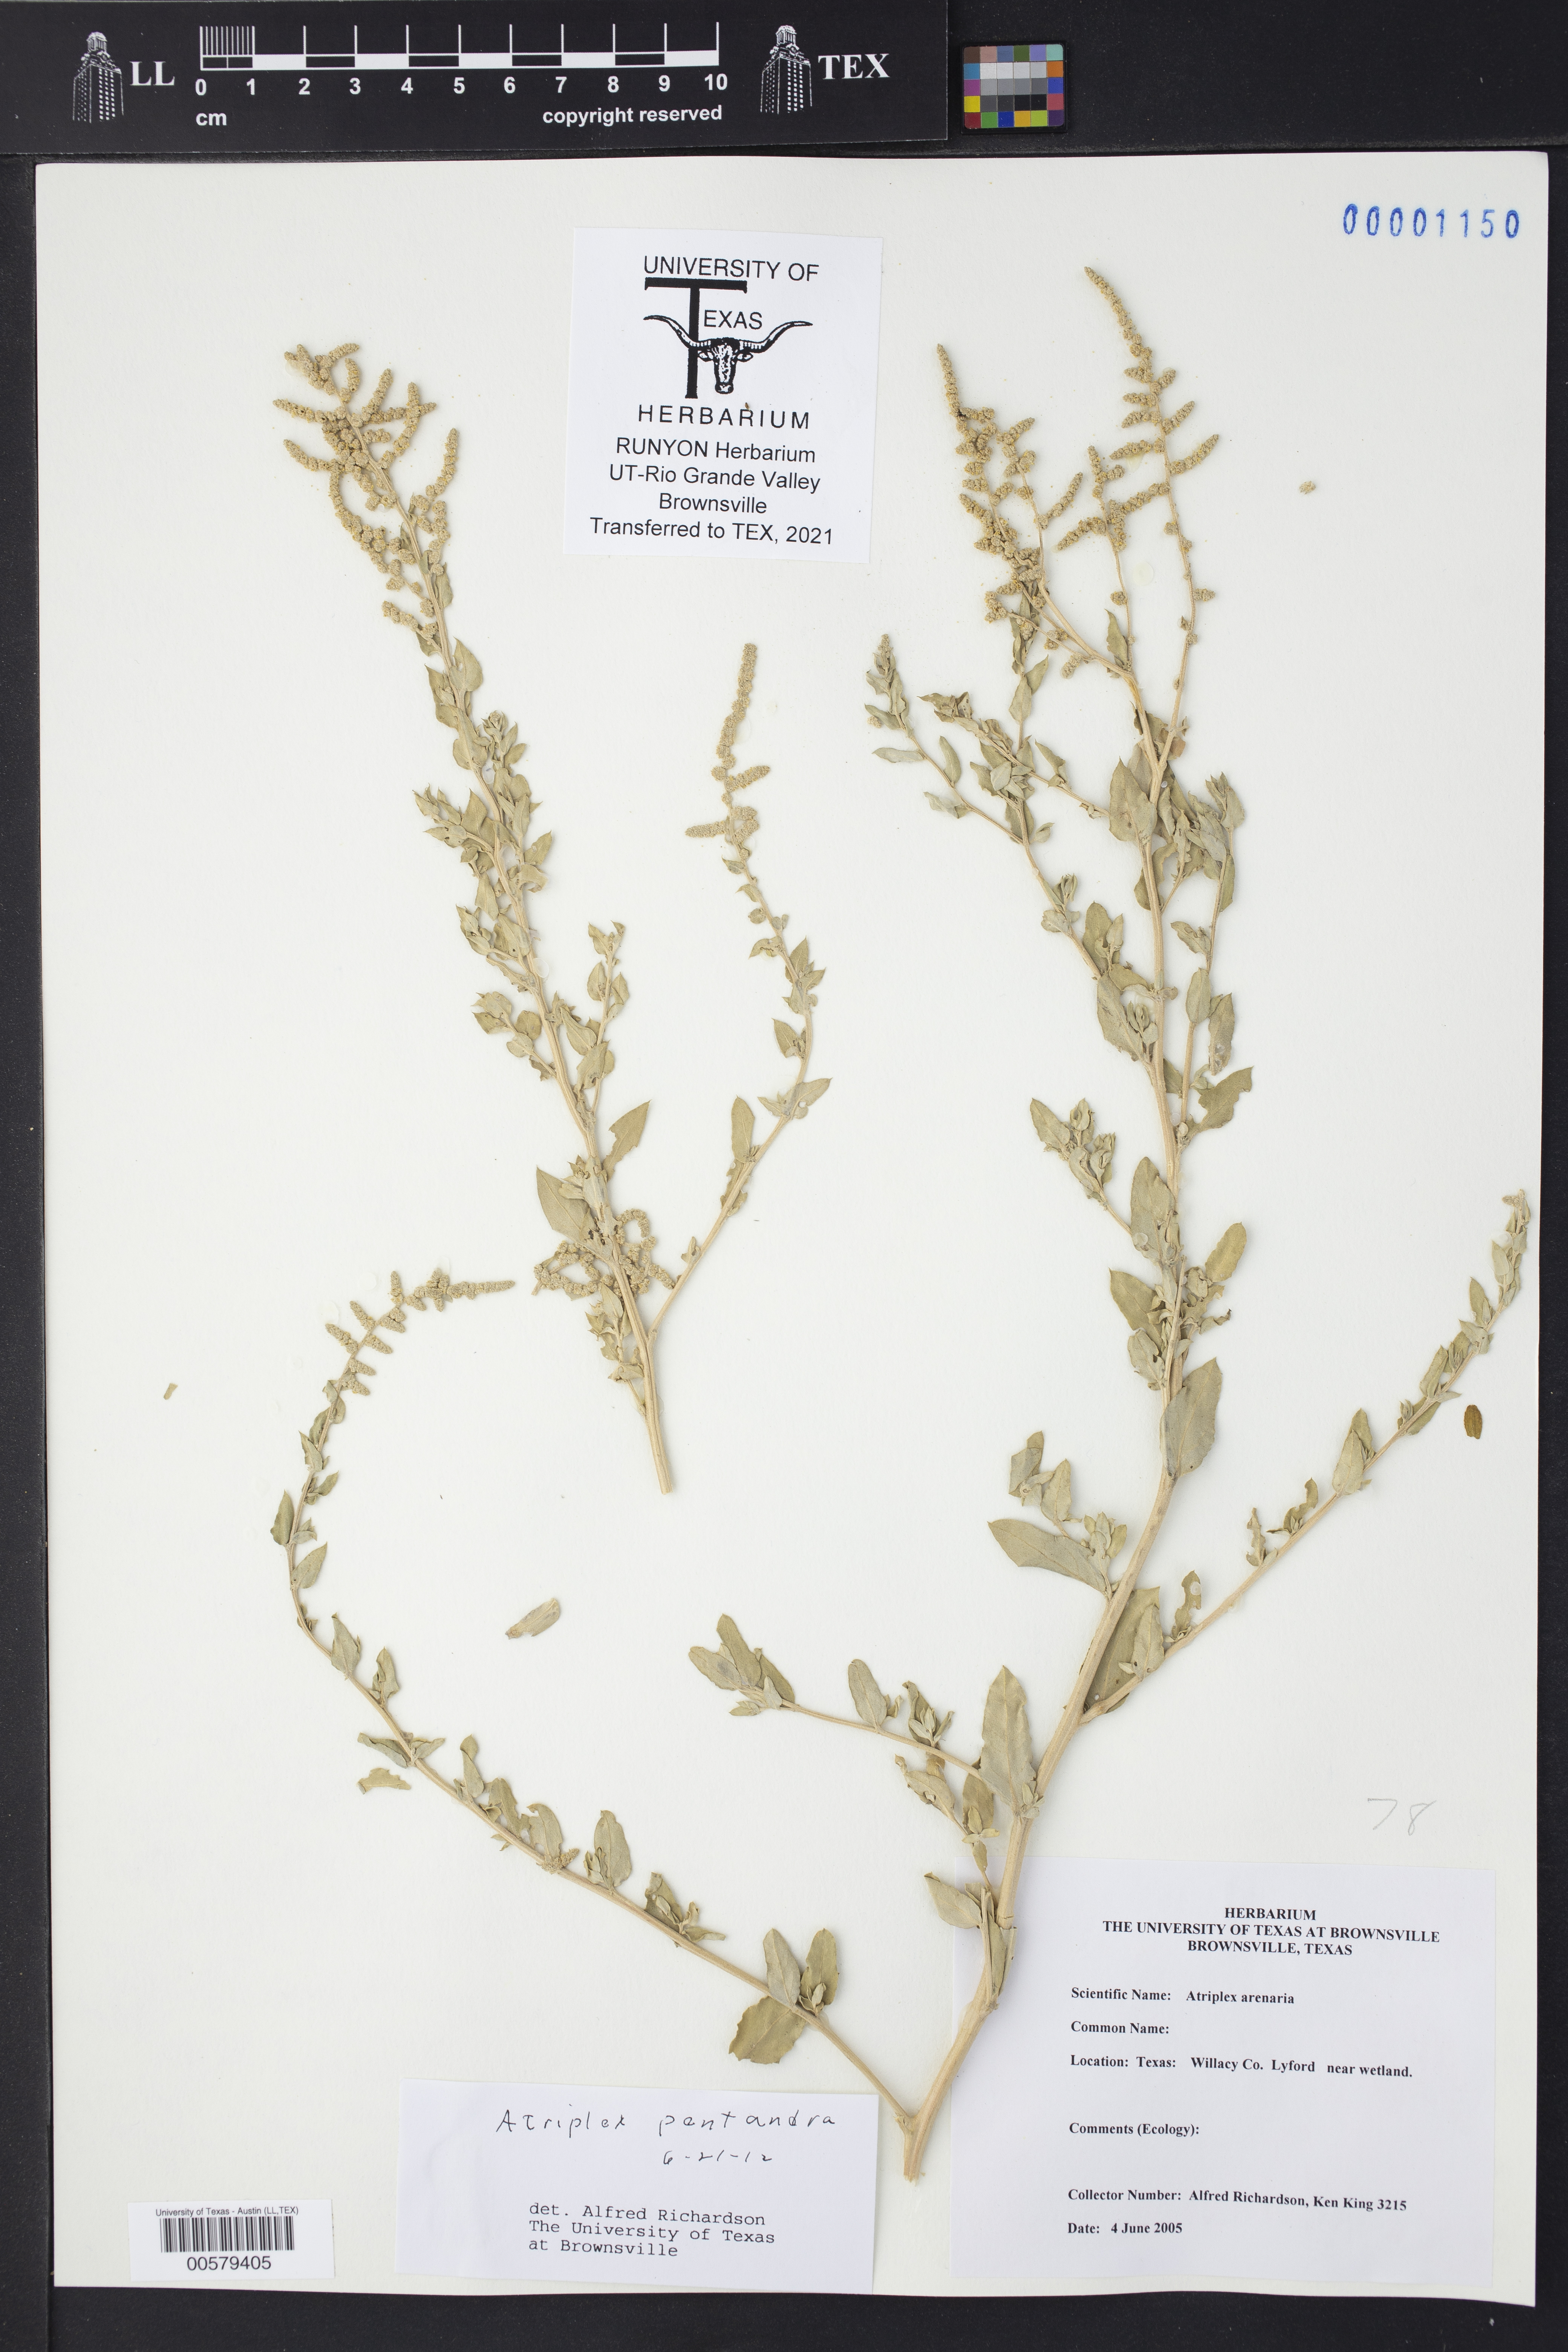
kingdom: Plantae
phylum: Tracheophyta
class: Magnoliopsida
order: Caryophyllales
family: Amaranthaceae
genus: Atriplex
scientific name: Atriplex cristata
